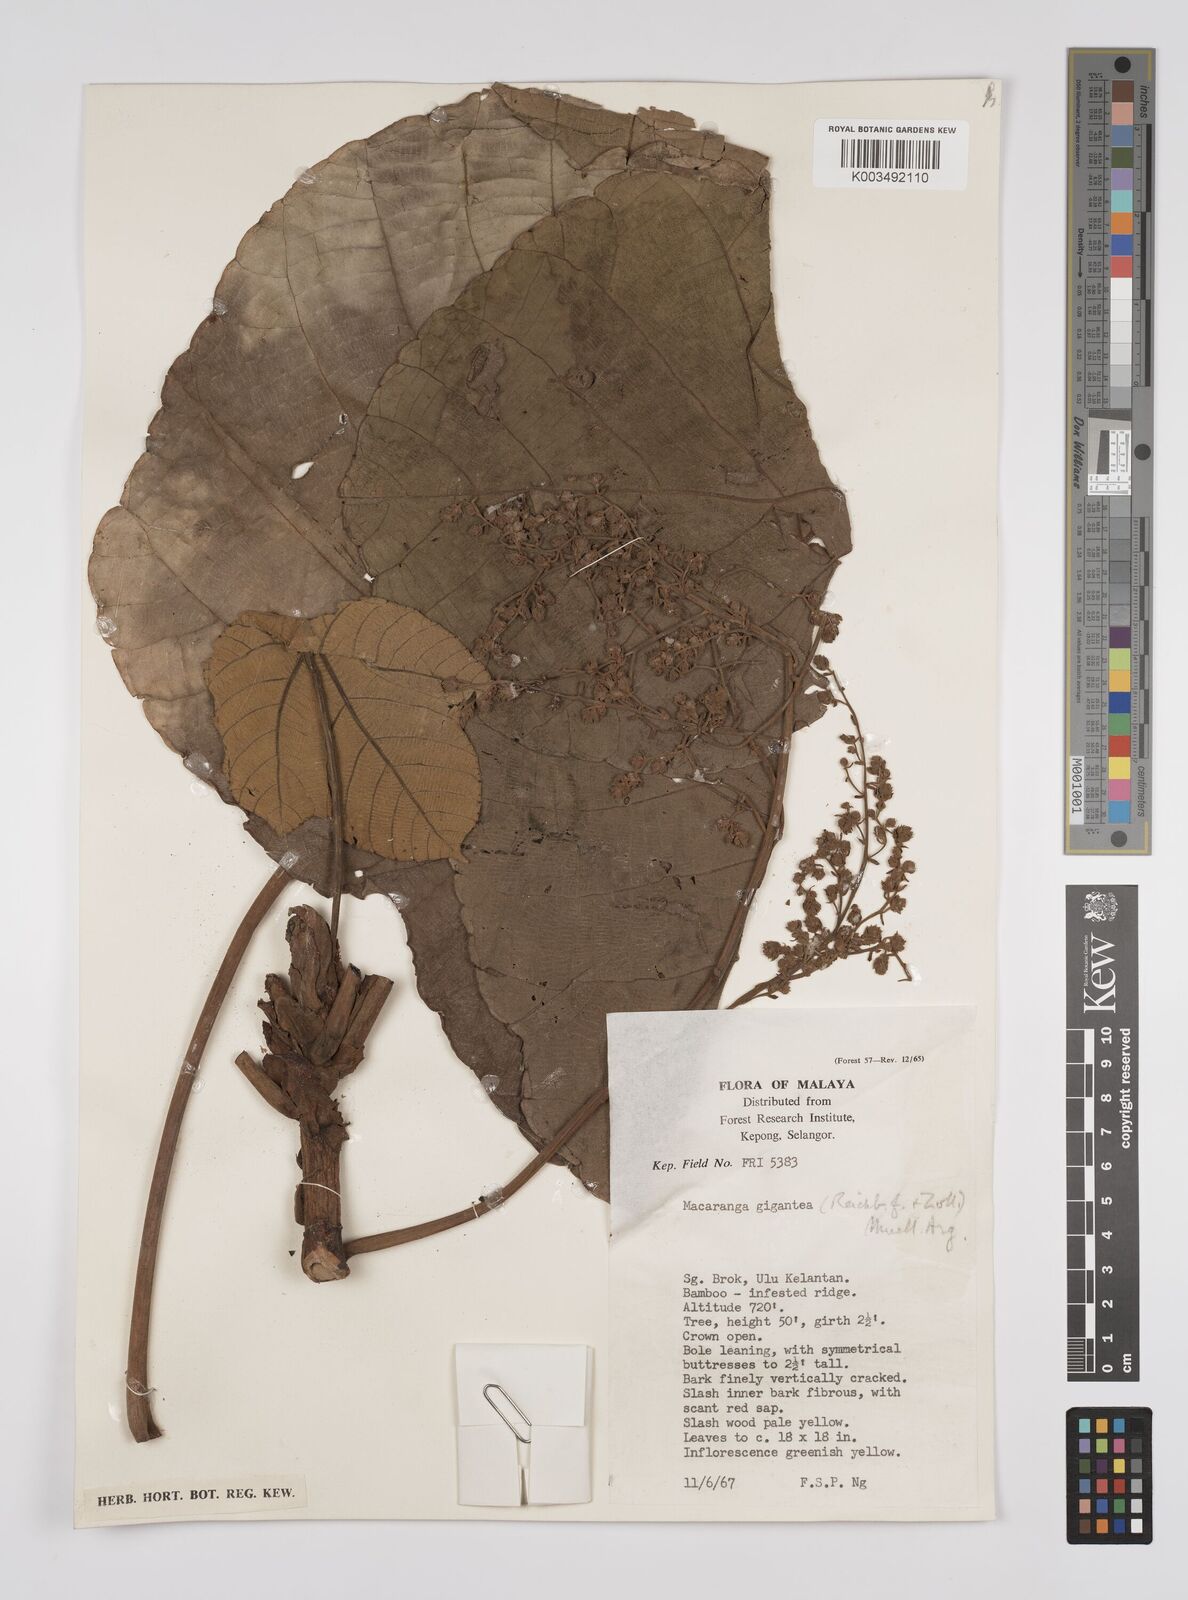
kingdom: Plantae
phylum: Tracheophyta
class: Magnoliopsida
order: Malpighiales
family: Euphorbiaceae
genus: Macaranga
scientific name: Macaranga gigantea
